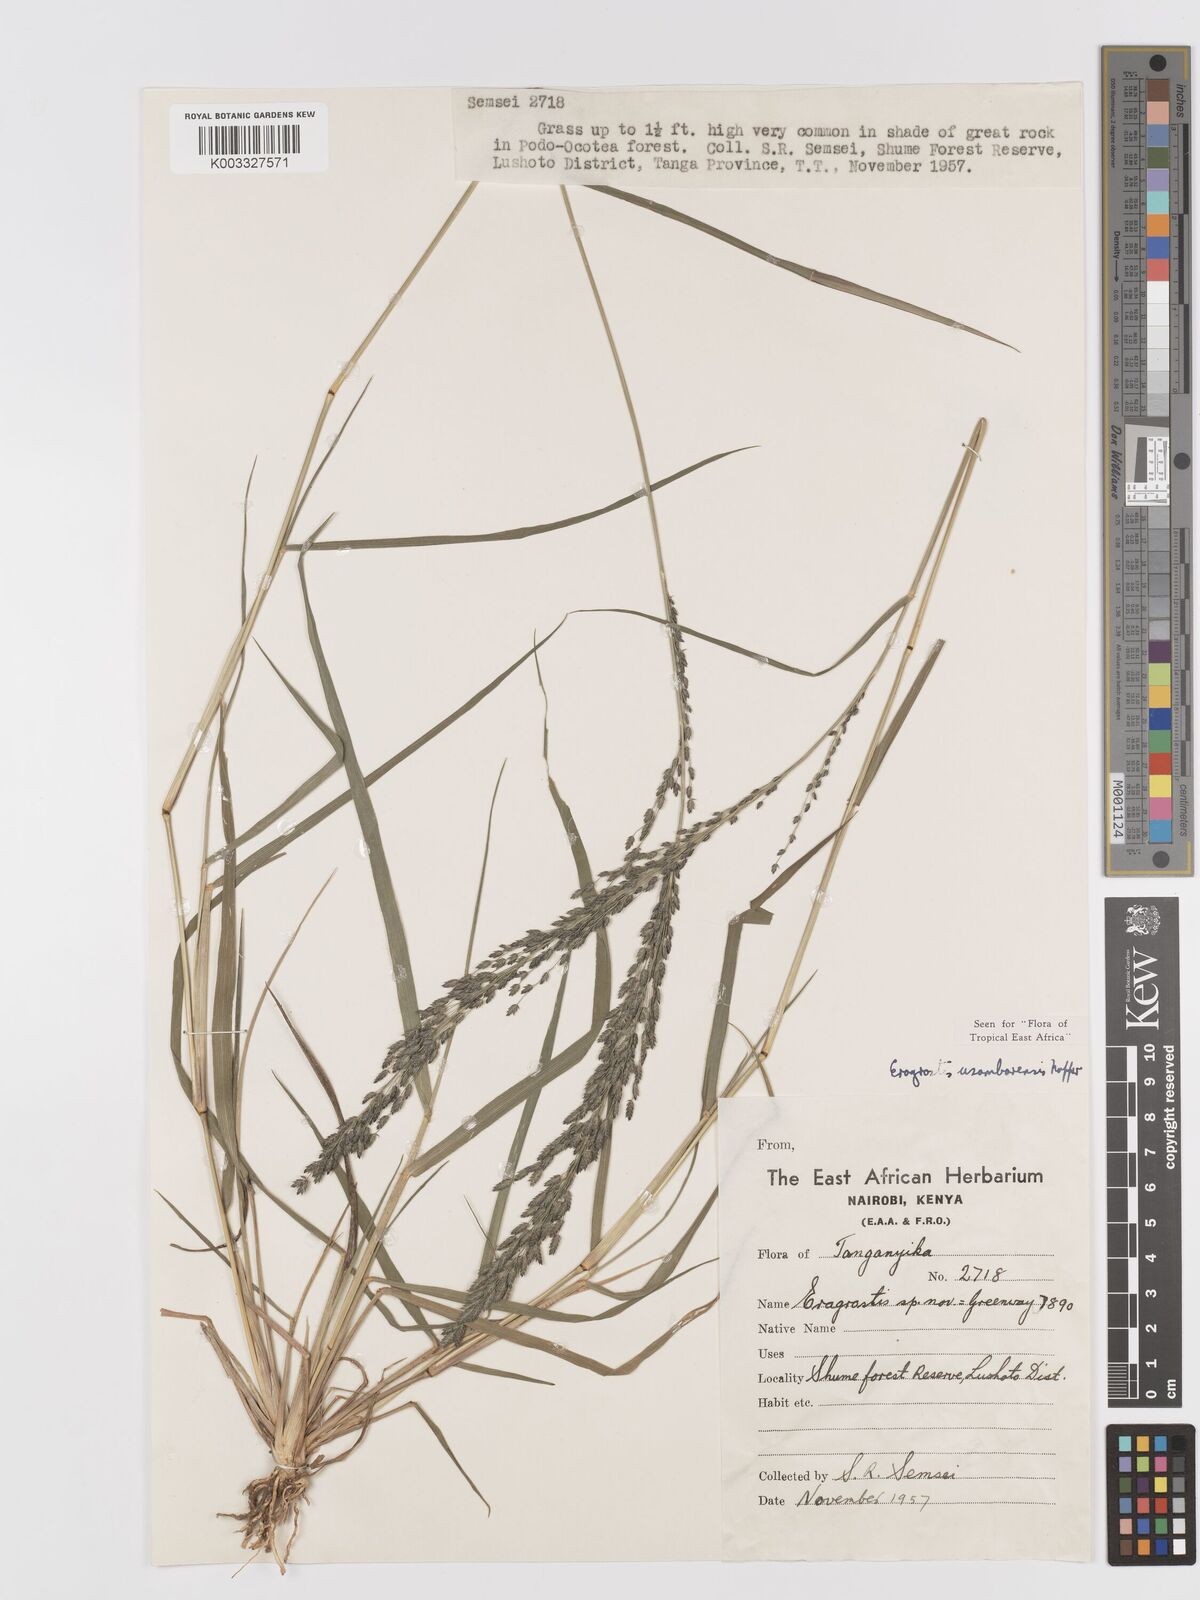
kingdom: Plantae
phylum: Tracheophyta
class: Liliopsida
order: Poales
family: Poaceae
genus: Eragrostis
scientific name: Eragrostis usambarensis
